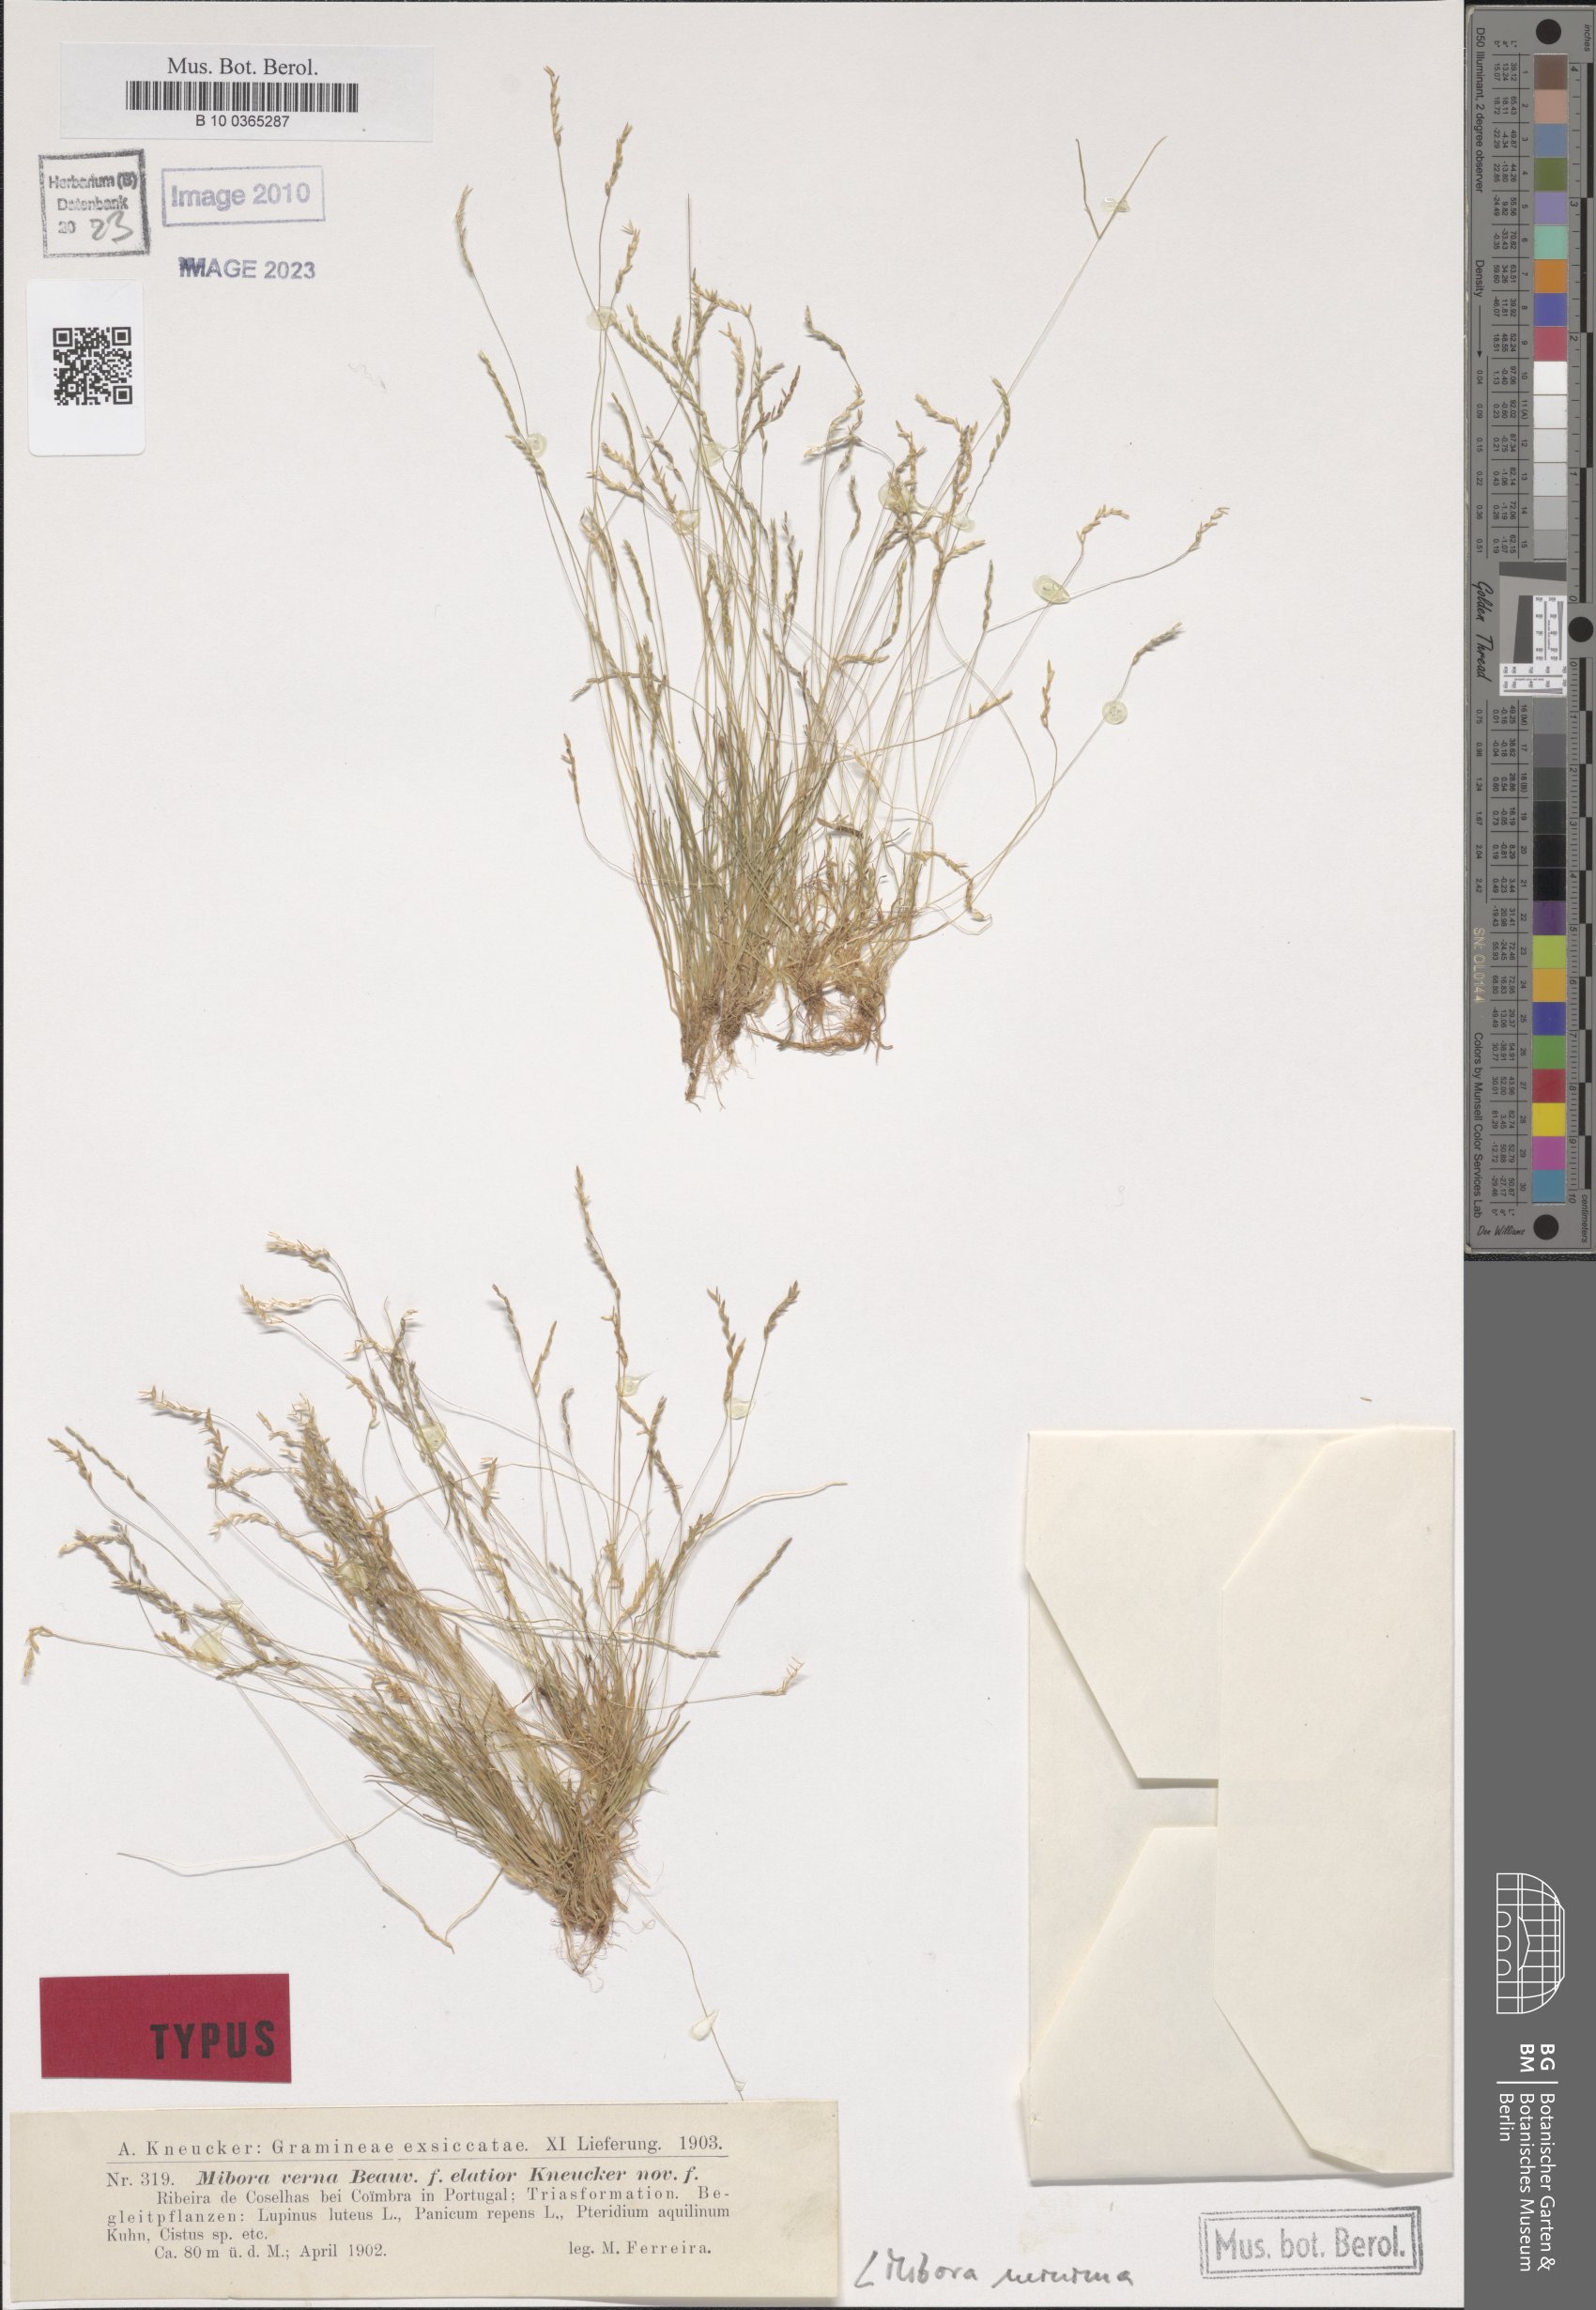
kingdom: Plantae
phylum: Tracheophyta
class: Liliopsida
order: Poales
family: Poaceae
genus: Mibora
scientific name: Mibora minima
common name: Early sand-grass
